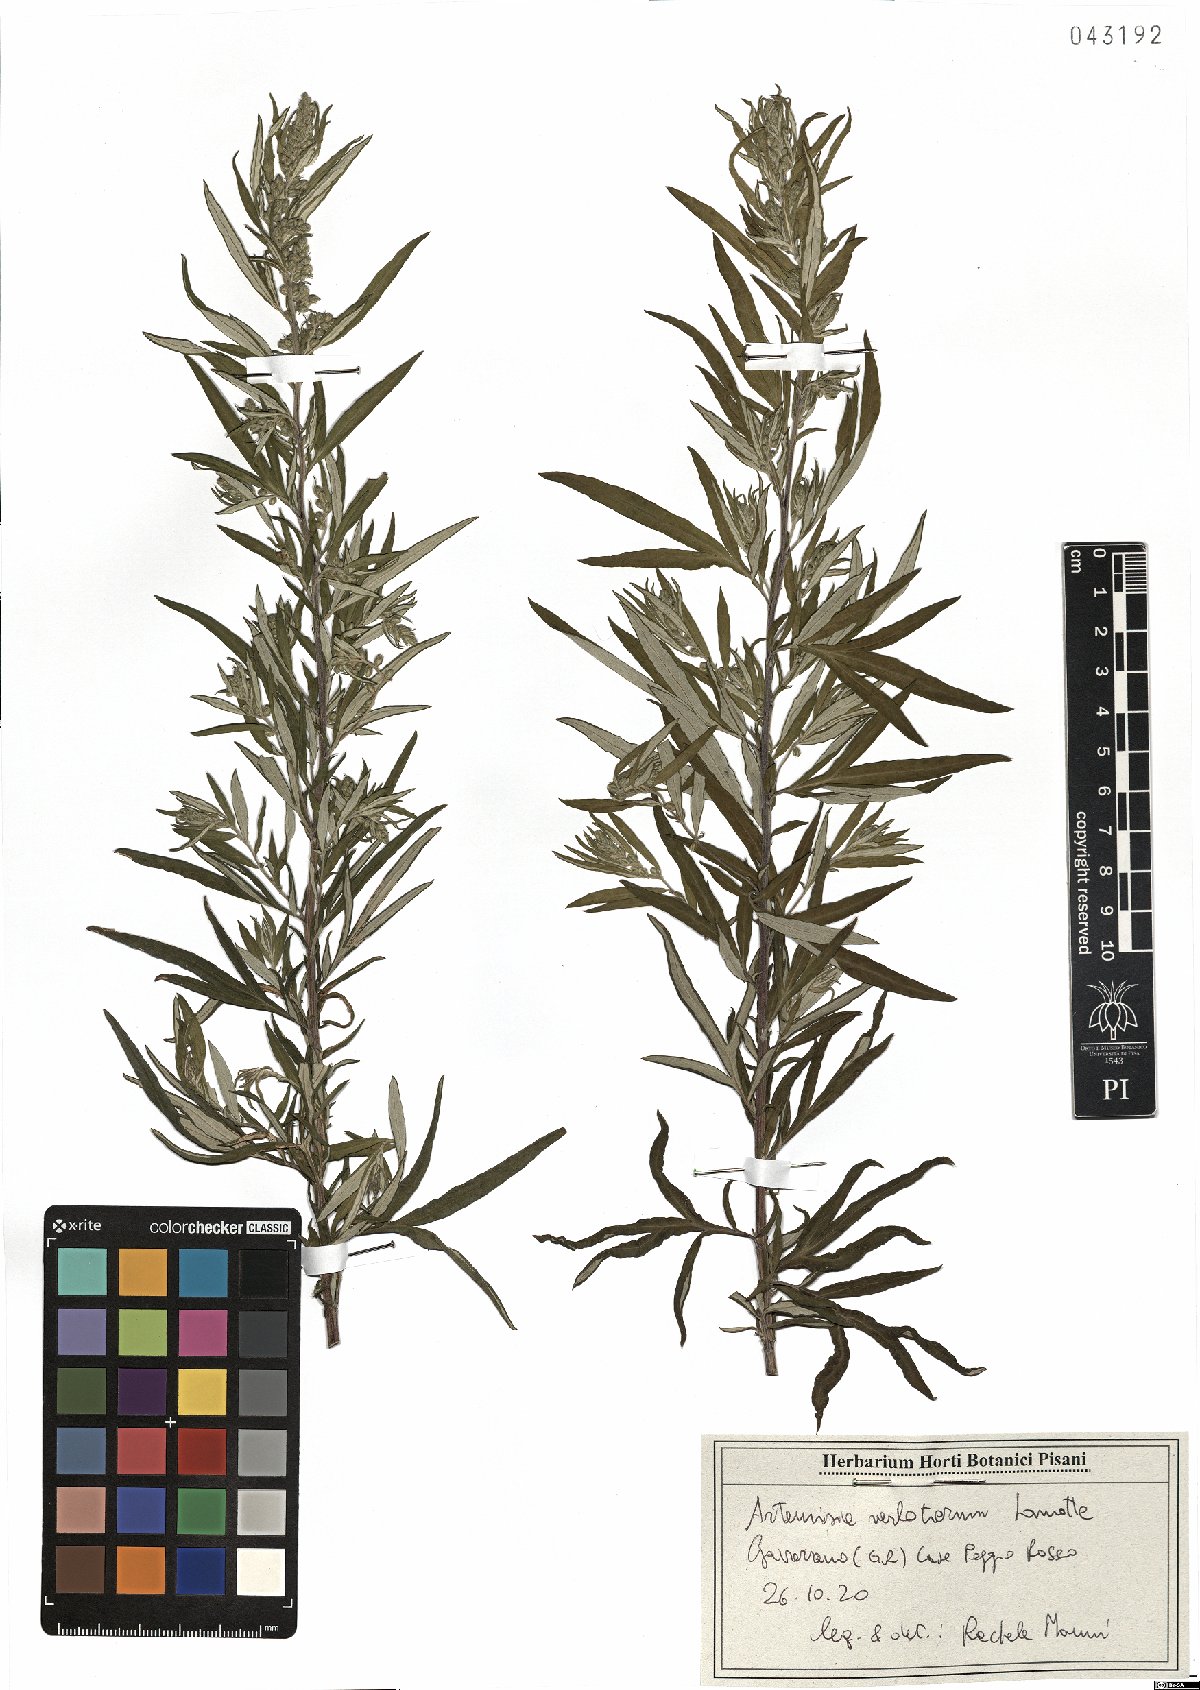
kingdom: Plantae
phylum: Tracheophyta
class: Magnoliopsida
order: Asterales
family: Asteraceae
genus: Artemisia
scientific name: Artemisia verlotiorum
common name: Chinese mugwort
